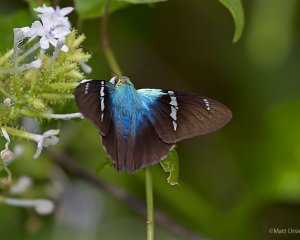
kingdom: Animalia
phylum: Arthropoda
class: Insecta
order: Lepidoptera
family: Hesperiidae
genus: Astraptes
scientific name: Astraptes fulgerator
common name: Two-barred Flasher
